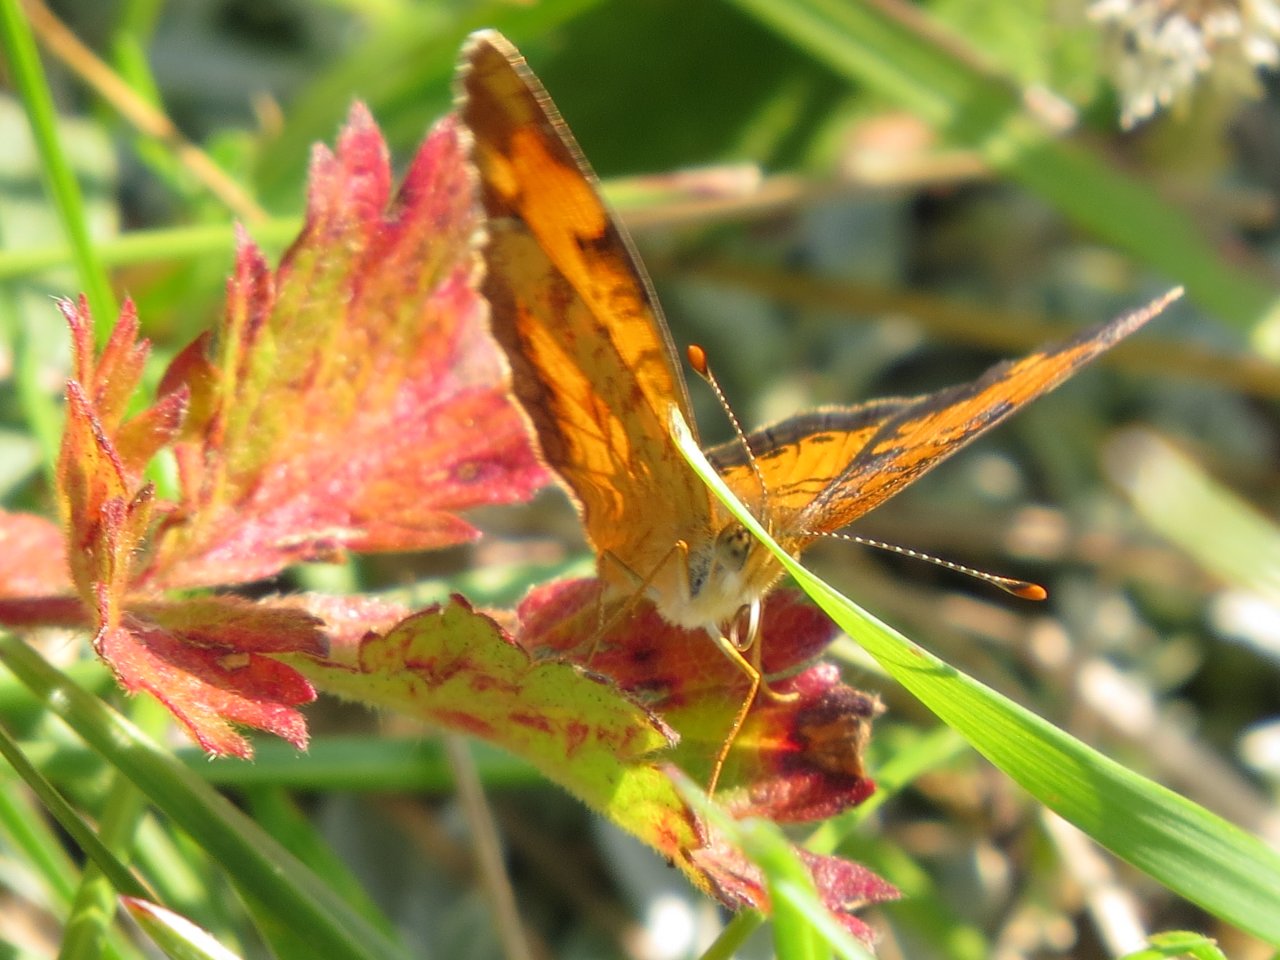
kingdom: Animalia
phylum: Arthropoda
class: Insecta
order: Lepidoptera
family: Nymphalidae
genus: Phyciodes
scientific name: Phyciodes tharos
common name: Northern Crescent
